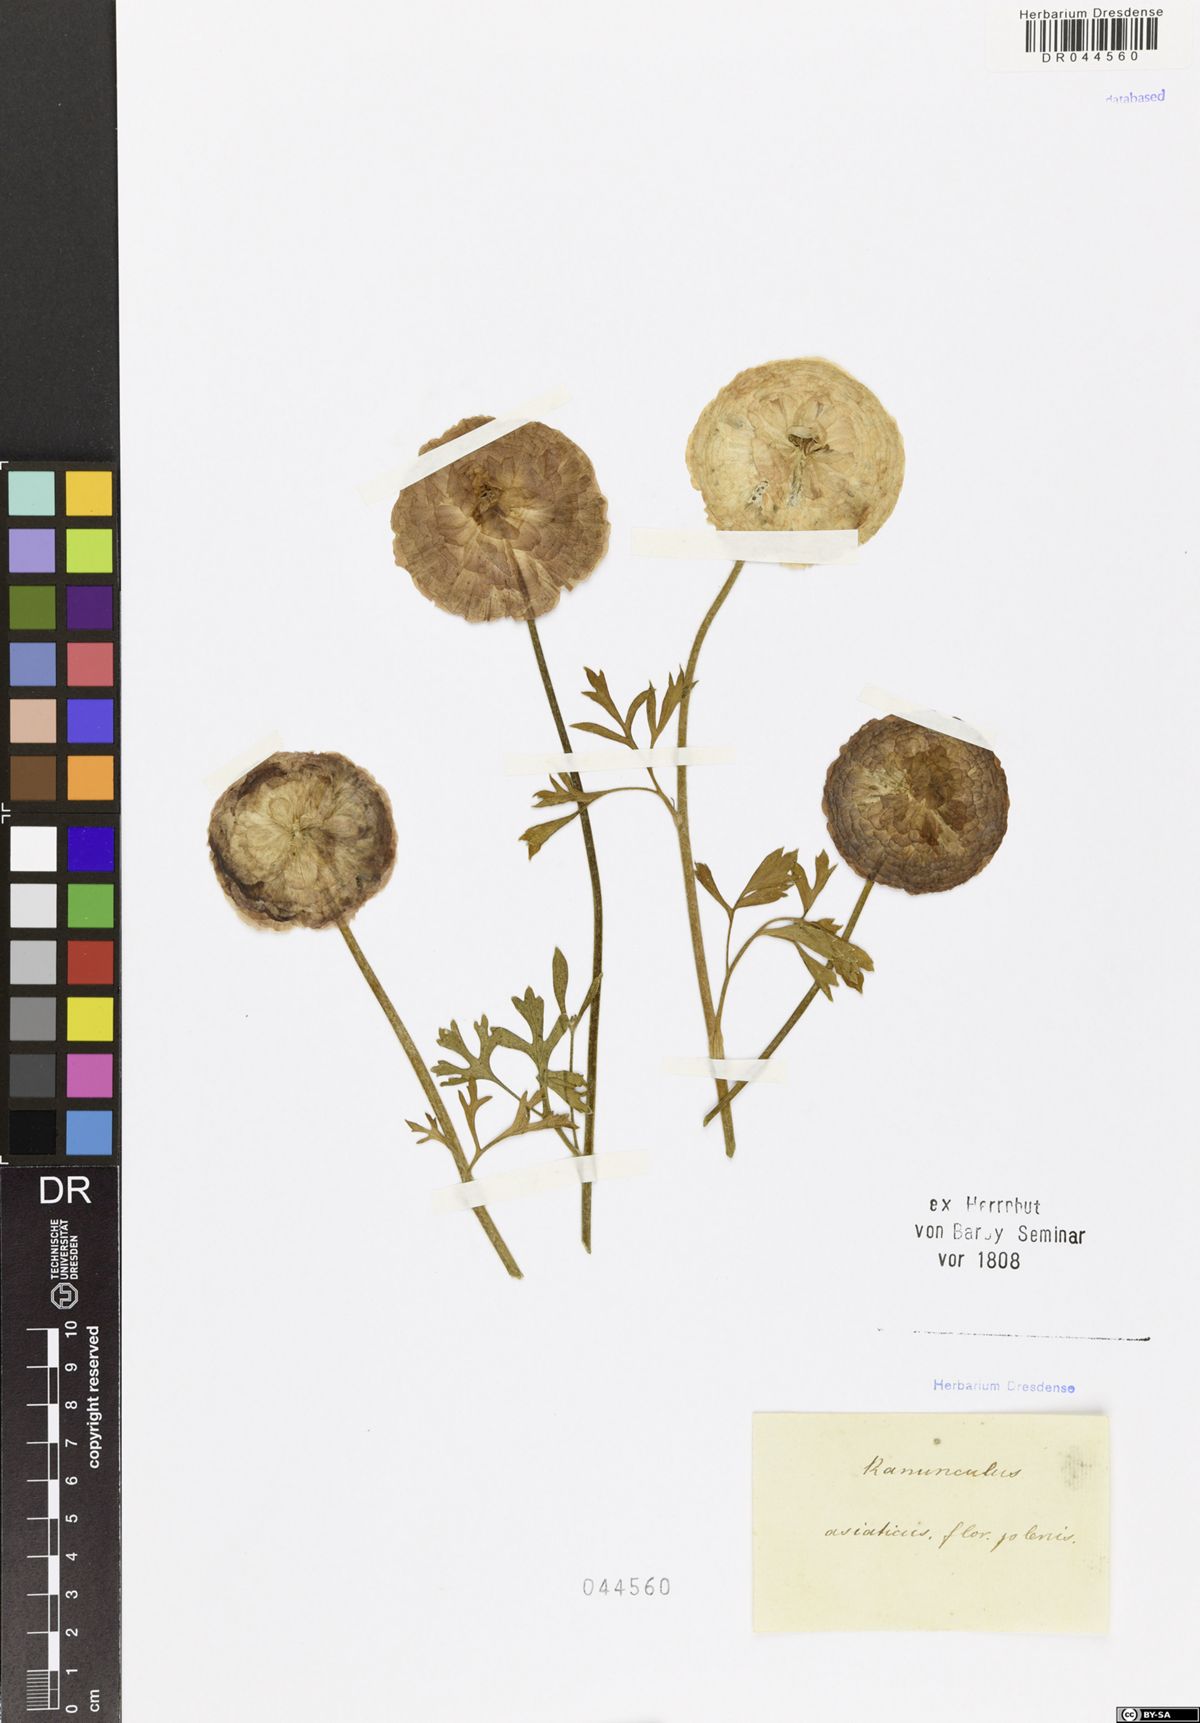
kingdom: Plantae
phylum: Tracheophyta
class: Magnoliopsida
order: Ranunculales
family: Ranunculaceae
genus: Ranunculus
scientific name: Ranunculus asiaticus
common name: Persian buttercup
